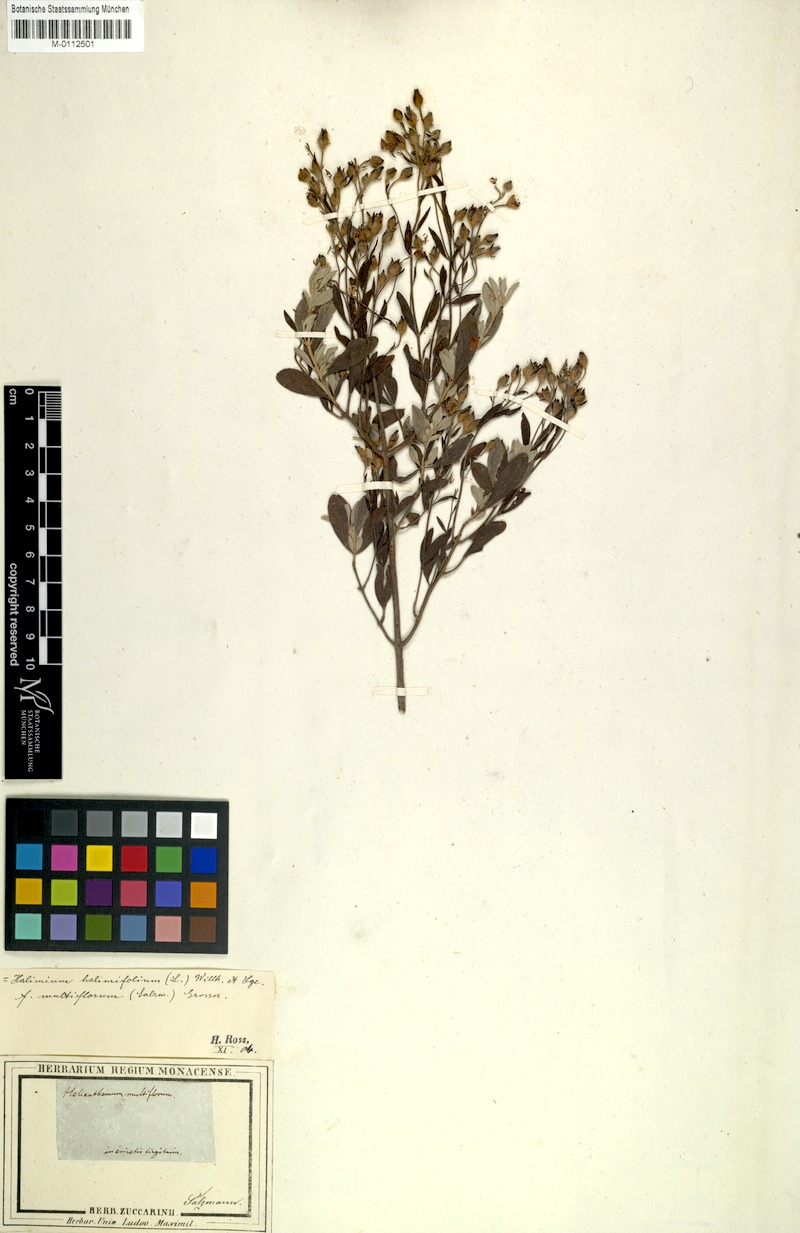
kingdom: Plantae
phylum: Tracheophyta
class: Magnoliopsida
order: Malvales
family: Cistaceae
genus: Halimium
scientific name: Halimium halimifolium
